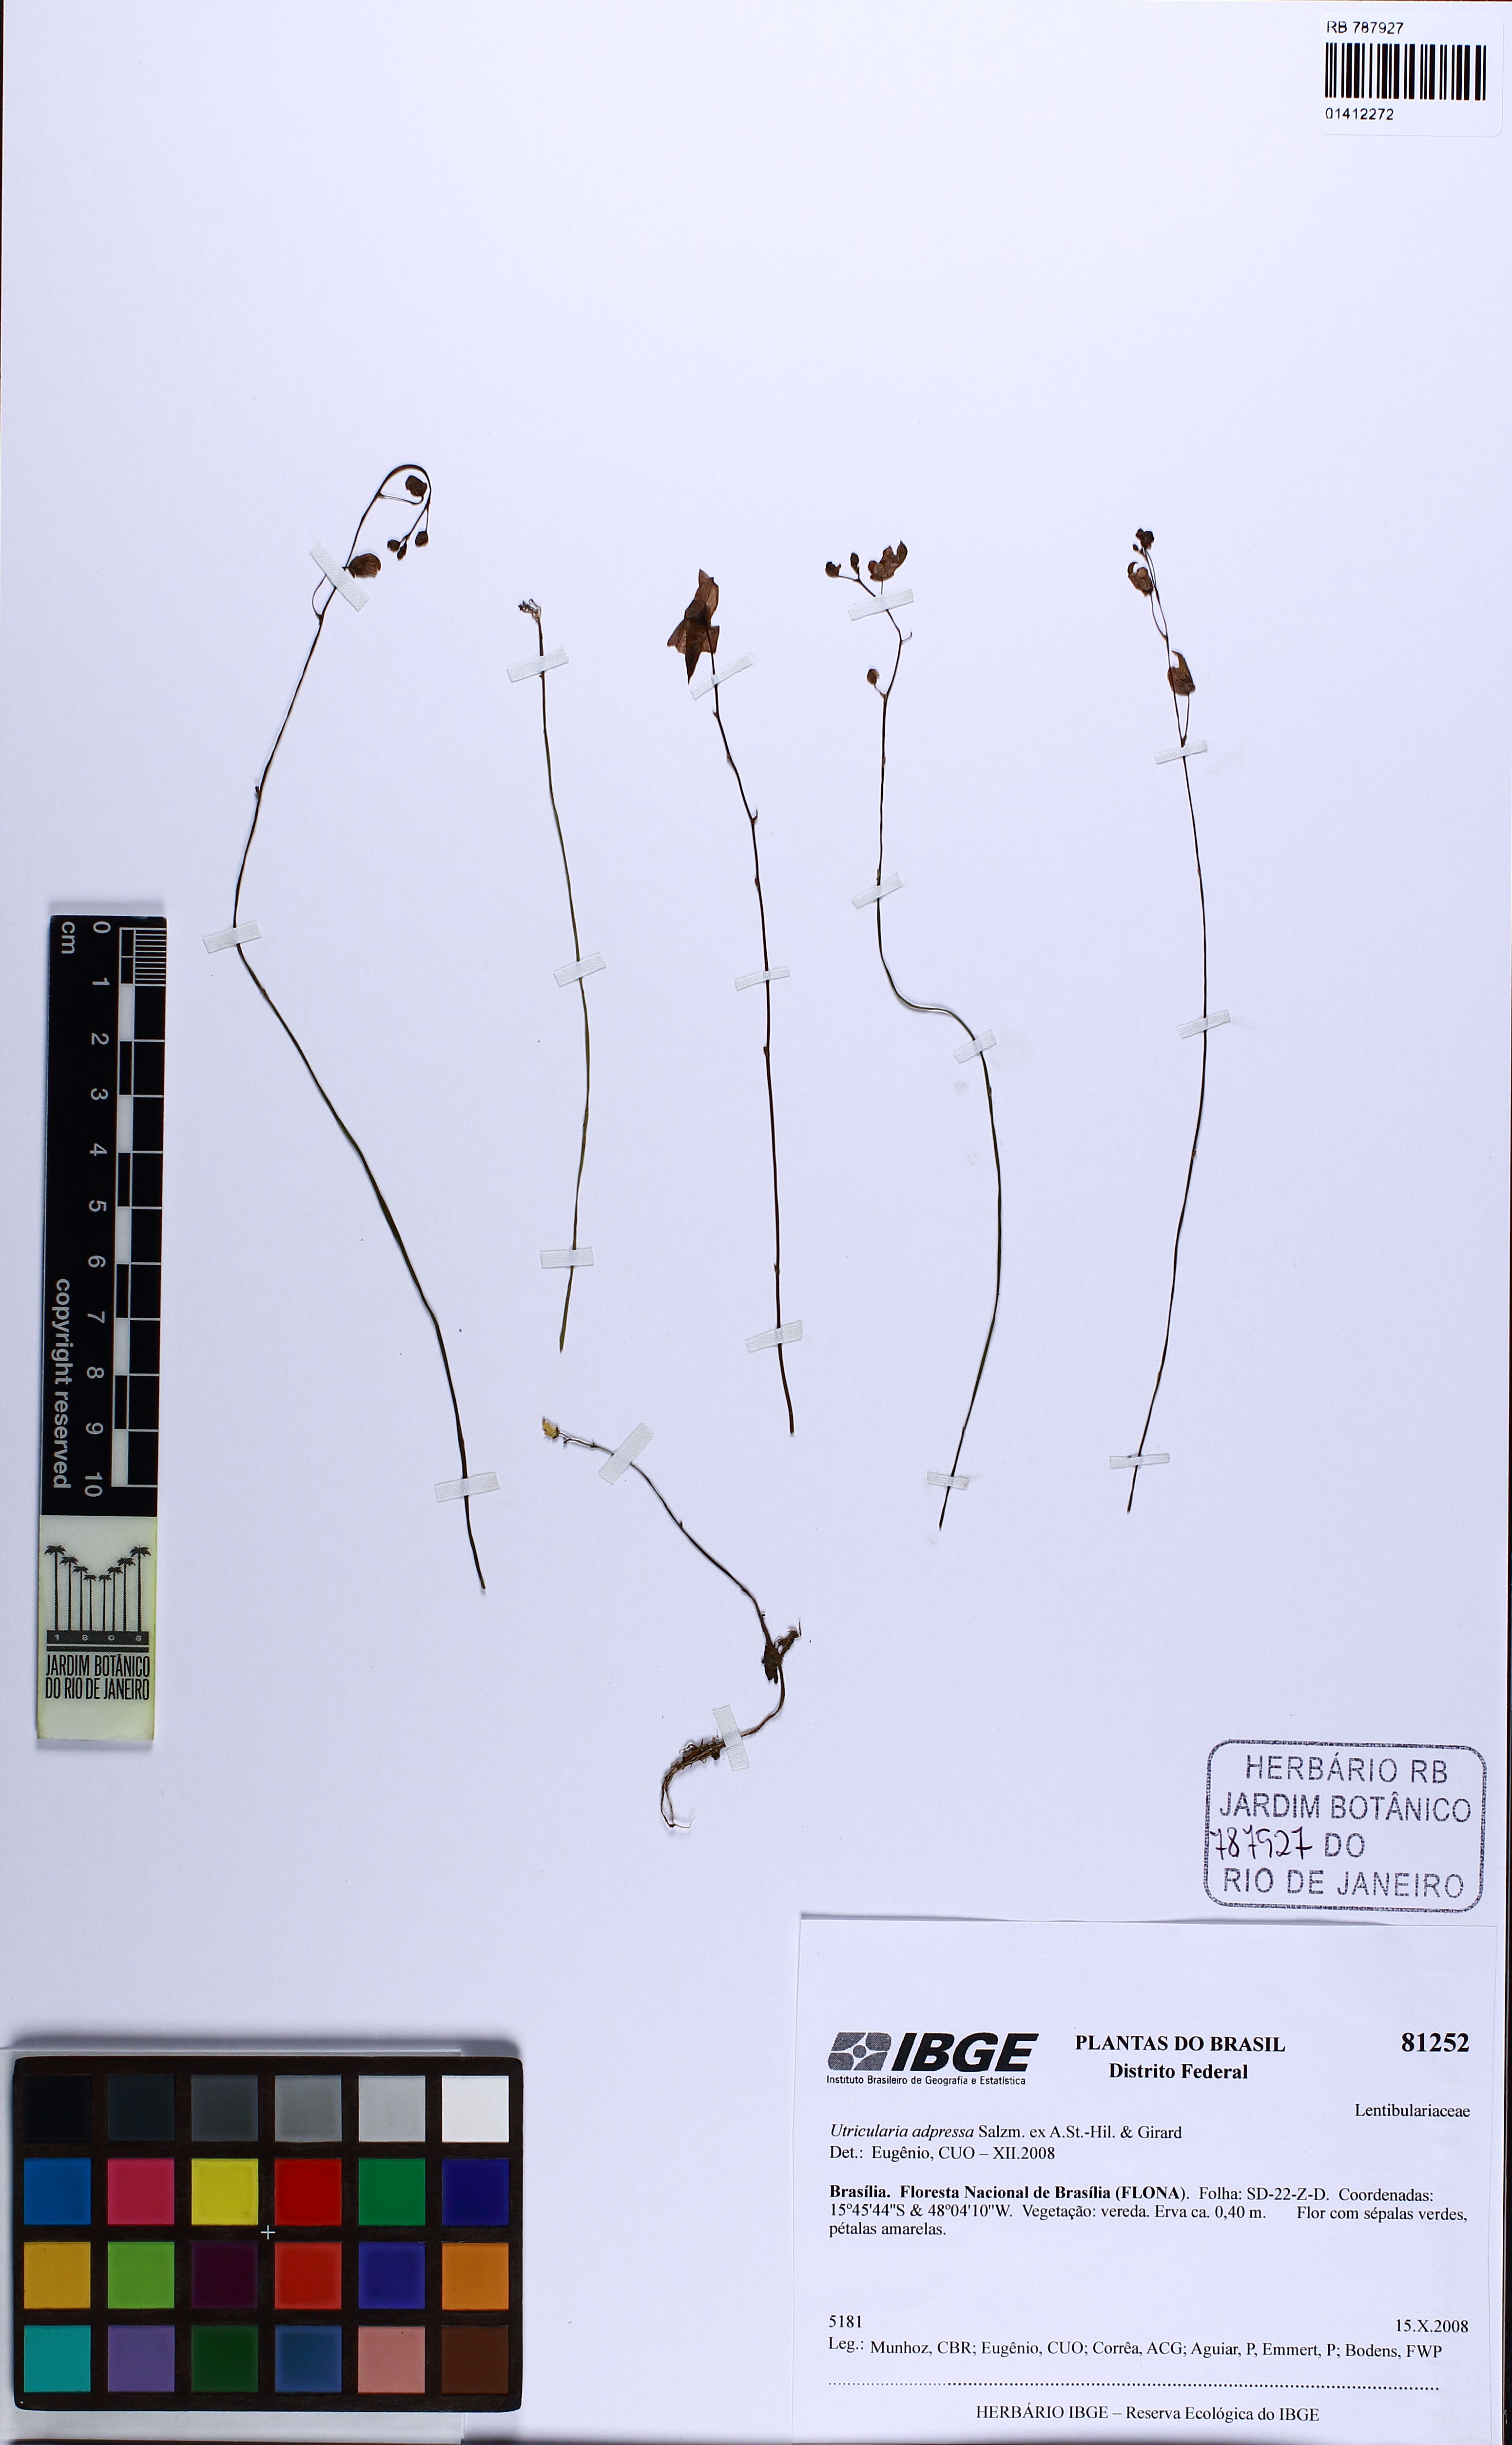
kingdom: Plantae
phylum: Tracheophyta
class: Magnoliopsida
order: Lamiales
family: Lentibulariaceae
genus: Utricularia
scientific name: Utricularia adpressa
